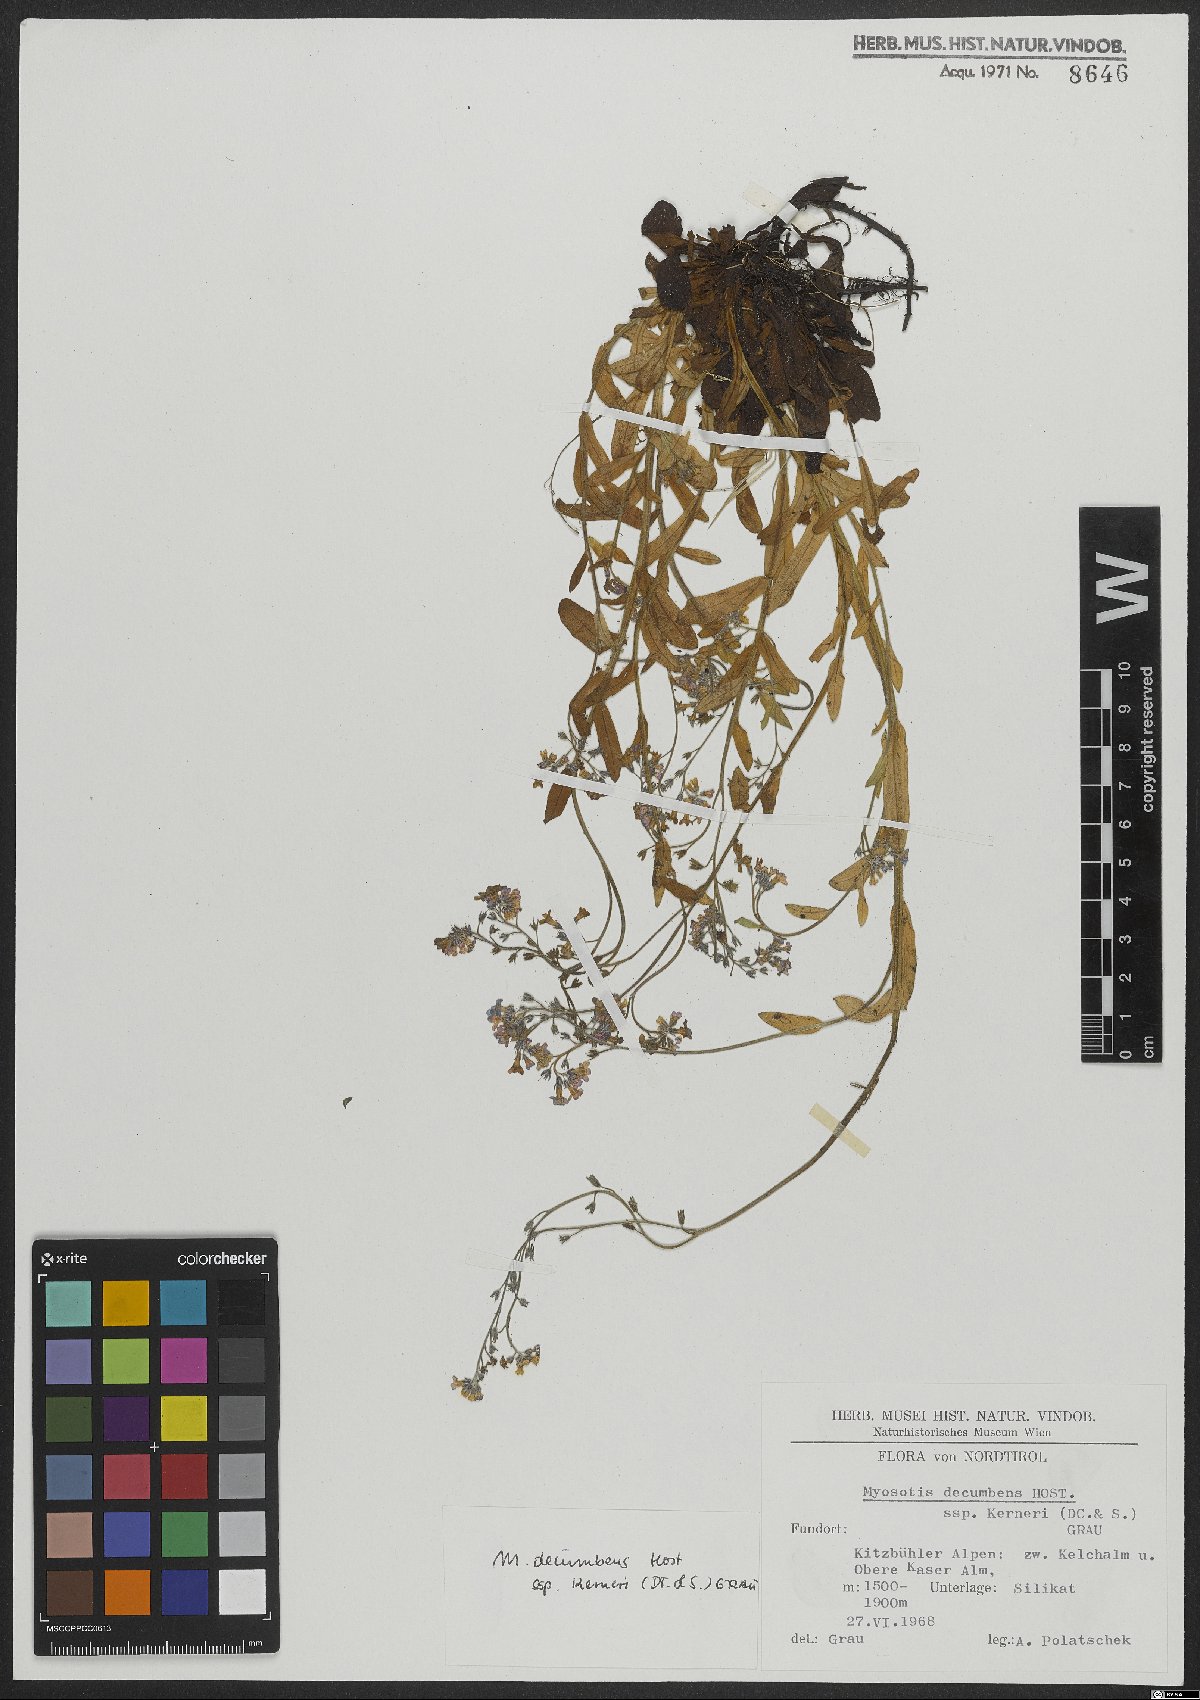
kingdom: Plantae
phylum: Tracheophyta
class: Magnoliopsida
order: Boraginales
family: Boraginaceae
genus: Myosotis
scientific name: Myosotis decumbens
